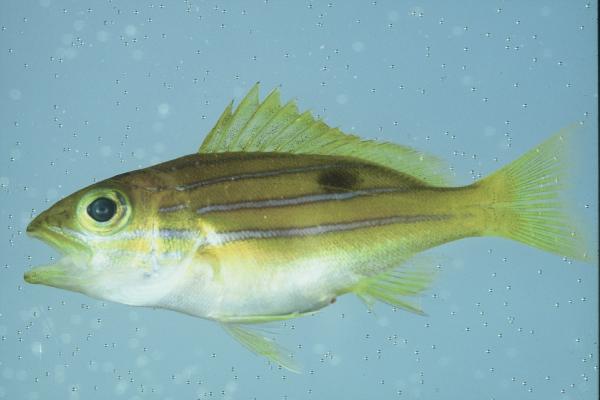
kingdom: Animalia
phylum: Chordata
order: Perciformes
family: Lutjanidae
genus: Lutjanus
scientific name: Lutjanus kasmira
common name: Common bluestripe snapper
